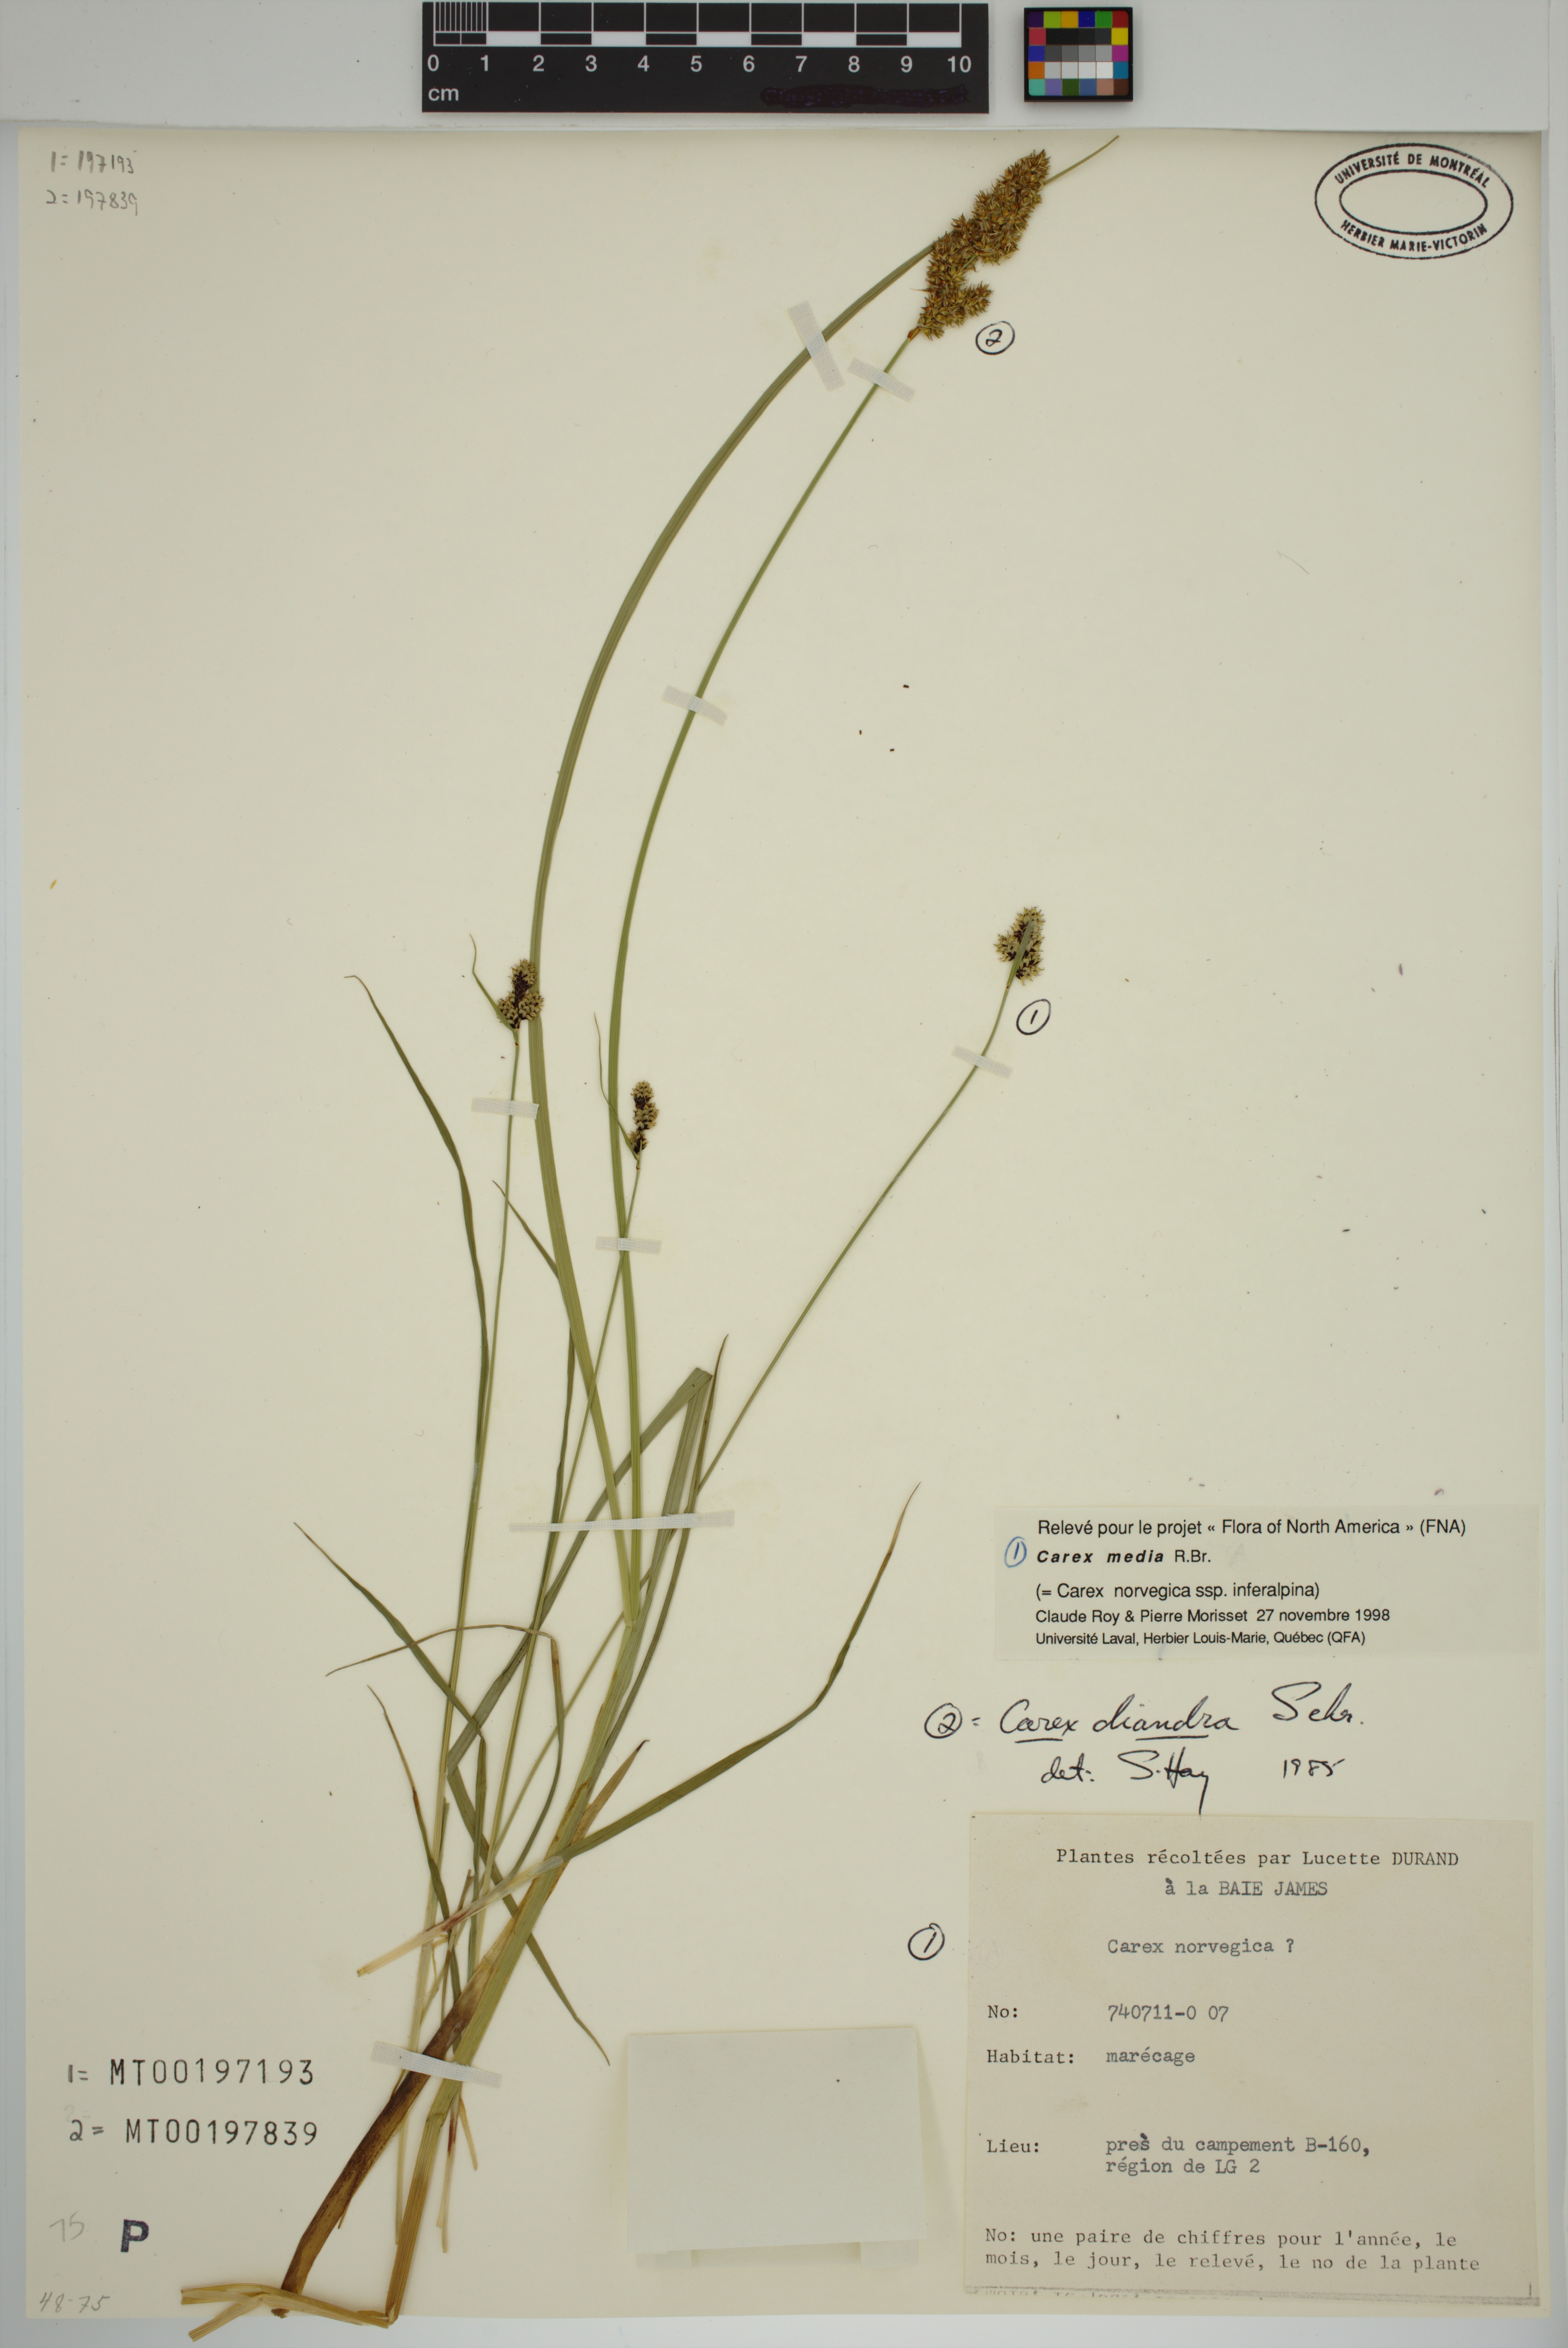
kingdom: Plantae
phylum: Tracheophyta
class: Liliopsida
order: Poales
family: Cyperaceae
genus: Carex
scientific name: Carex media
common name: Alpine sedge
